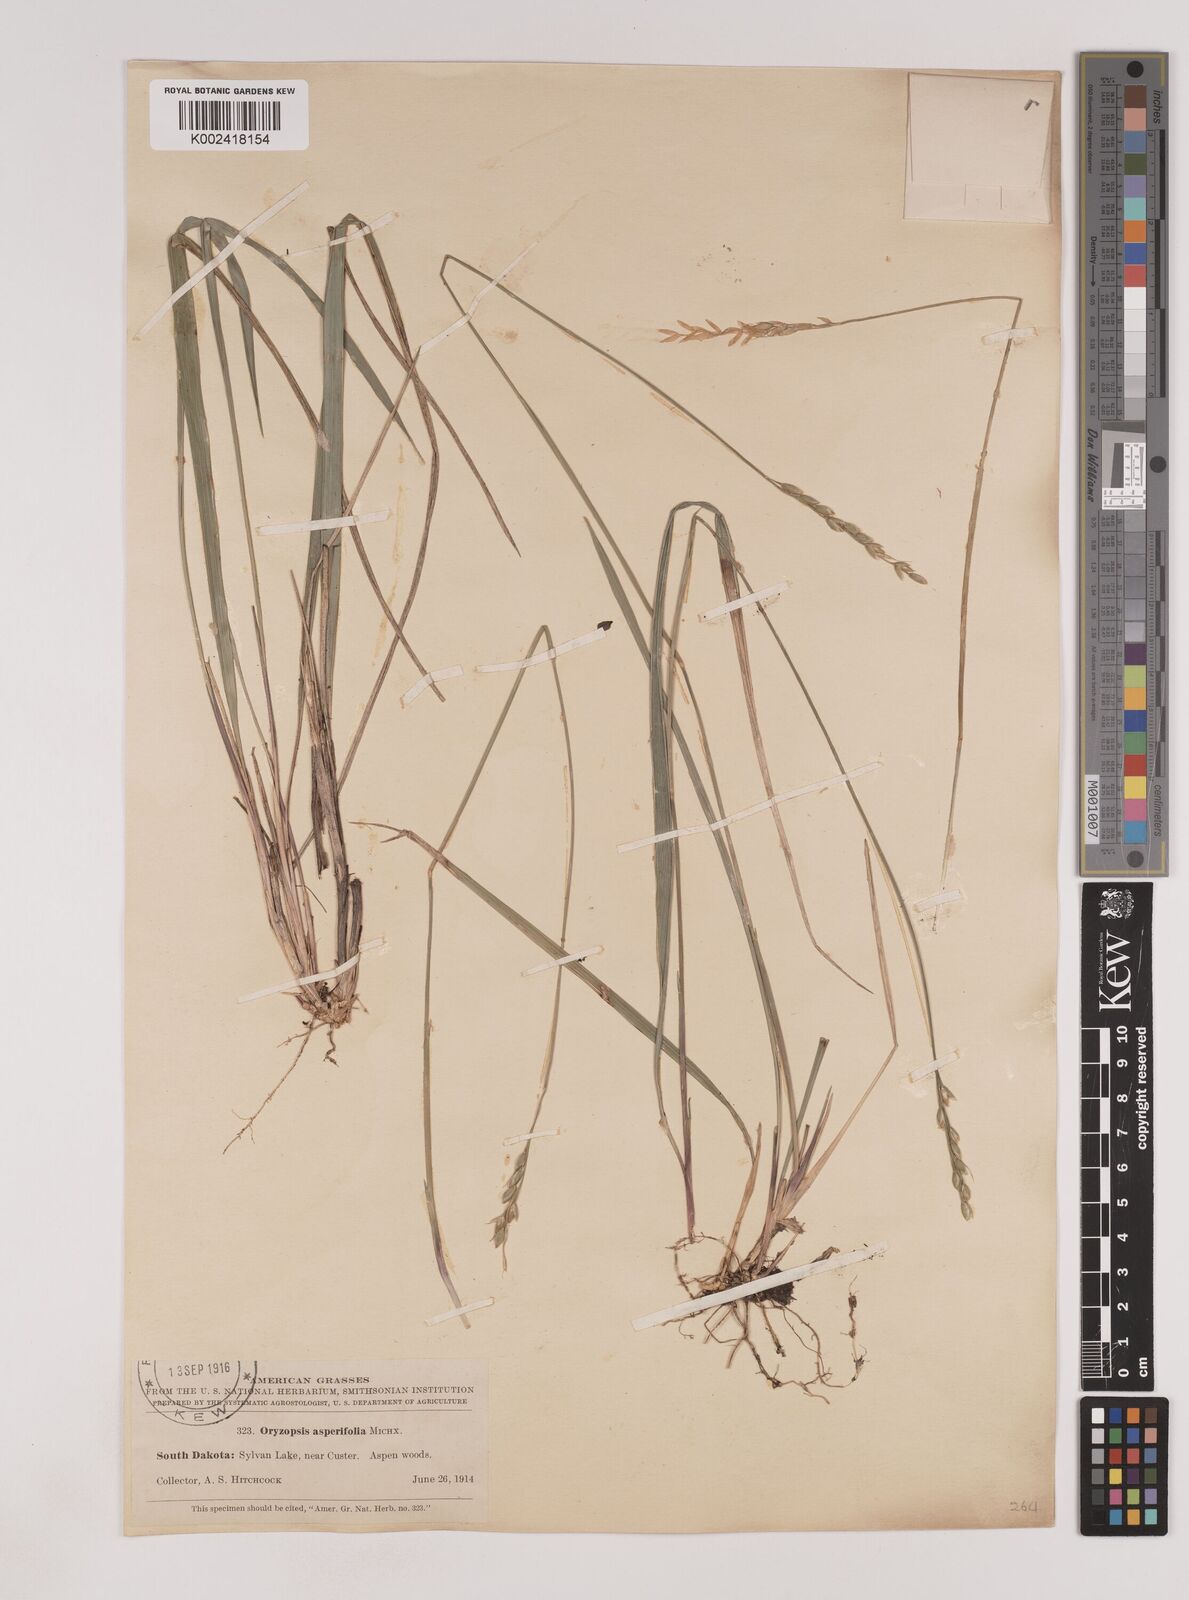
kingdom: Plantae
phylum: Tracheophyta
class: Liliopsida
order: Poales
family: Poaceae
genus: Oryzopsis
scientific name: Oryzopsis asperifolia
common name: Rough-leaved mountain rice
